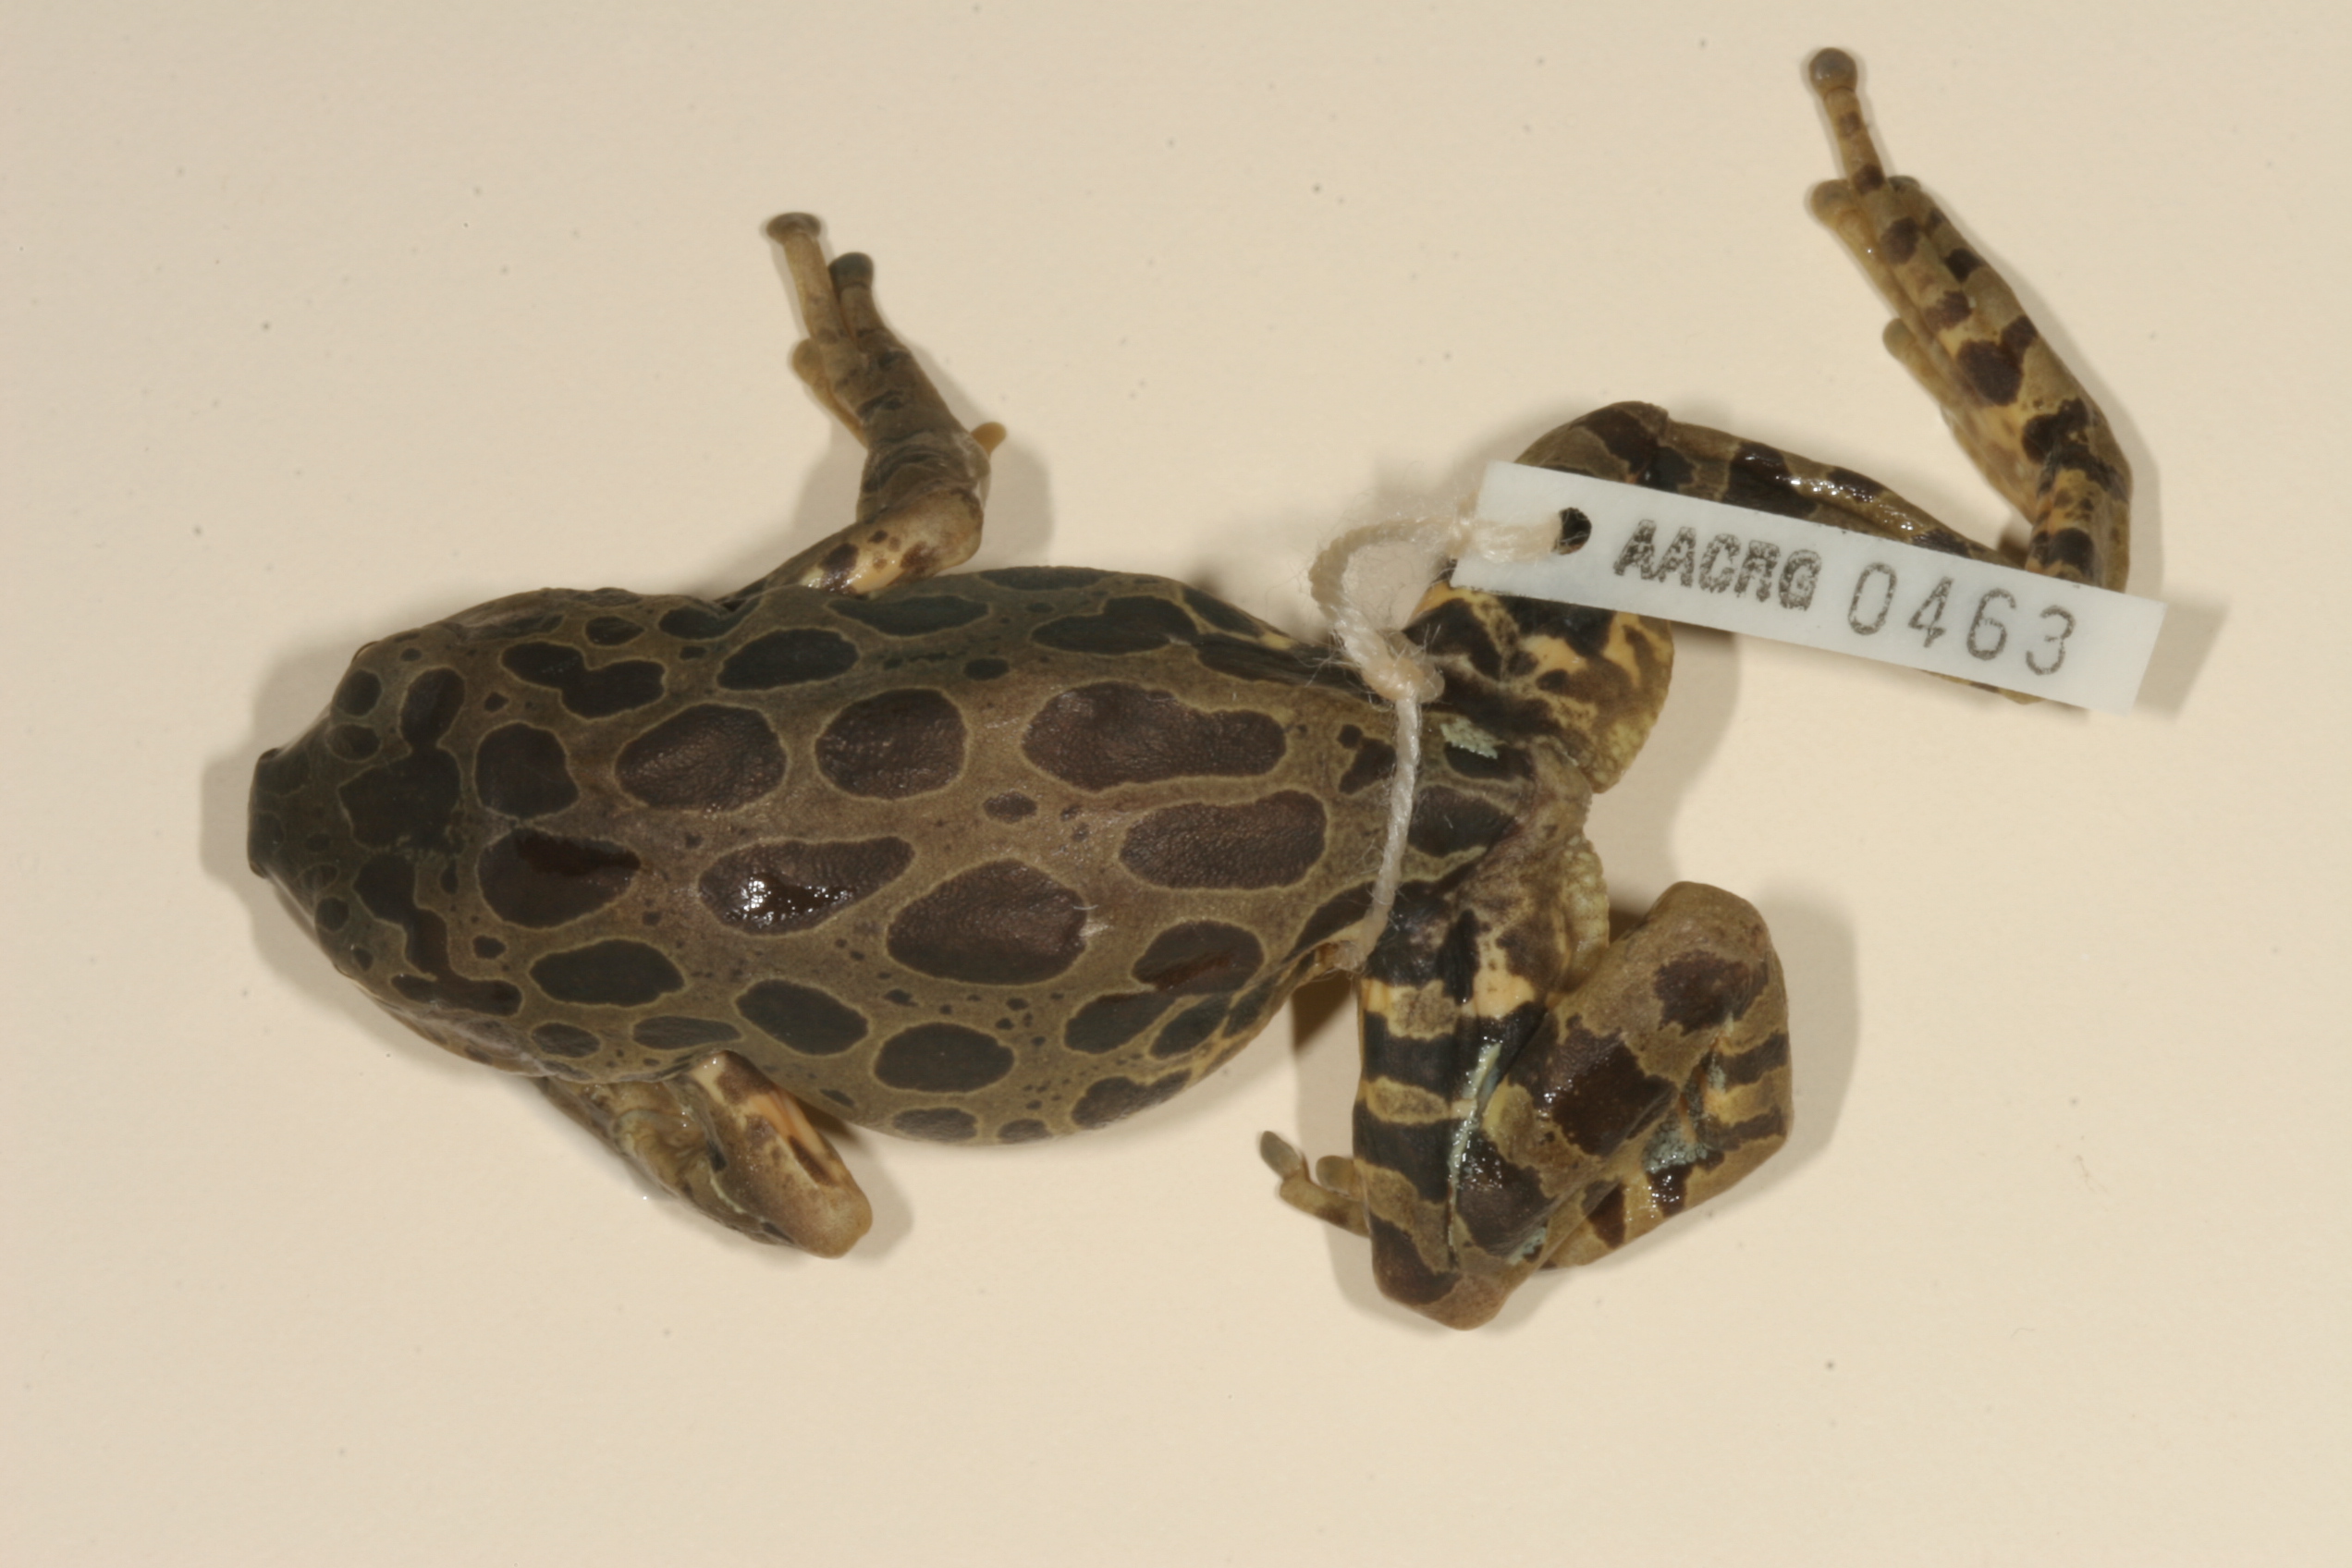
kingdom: Animalia
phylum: Chordata
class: Amphibia
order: Anura
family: Hyperoliidae
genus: Phlyctimantis
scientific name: Phlyctimantis maculatus
